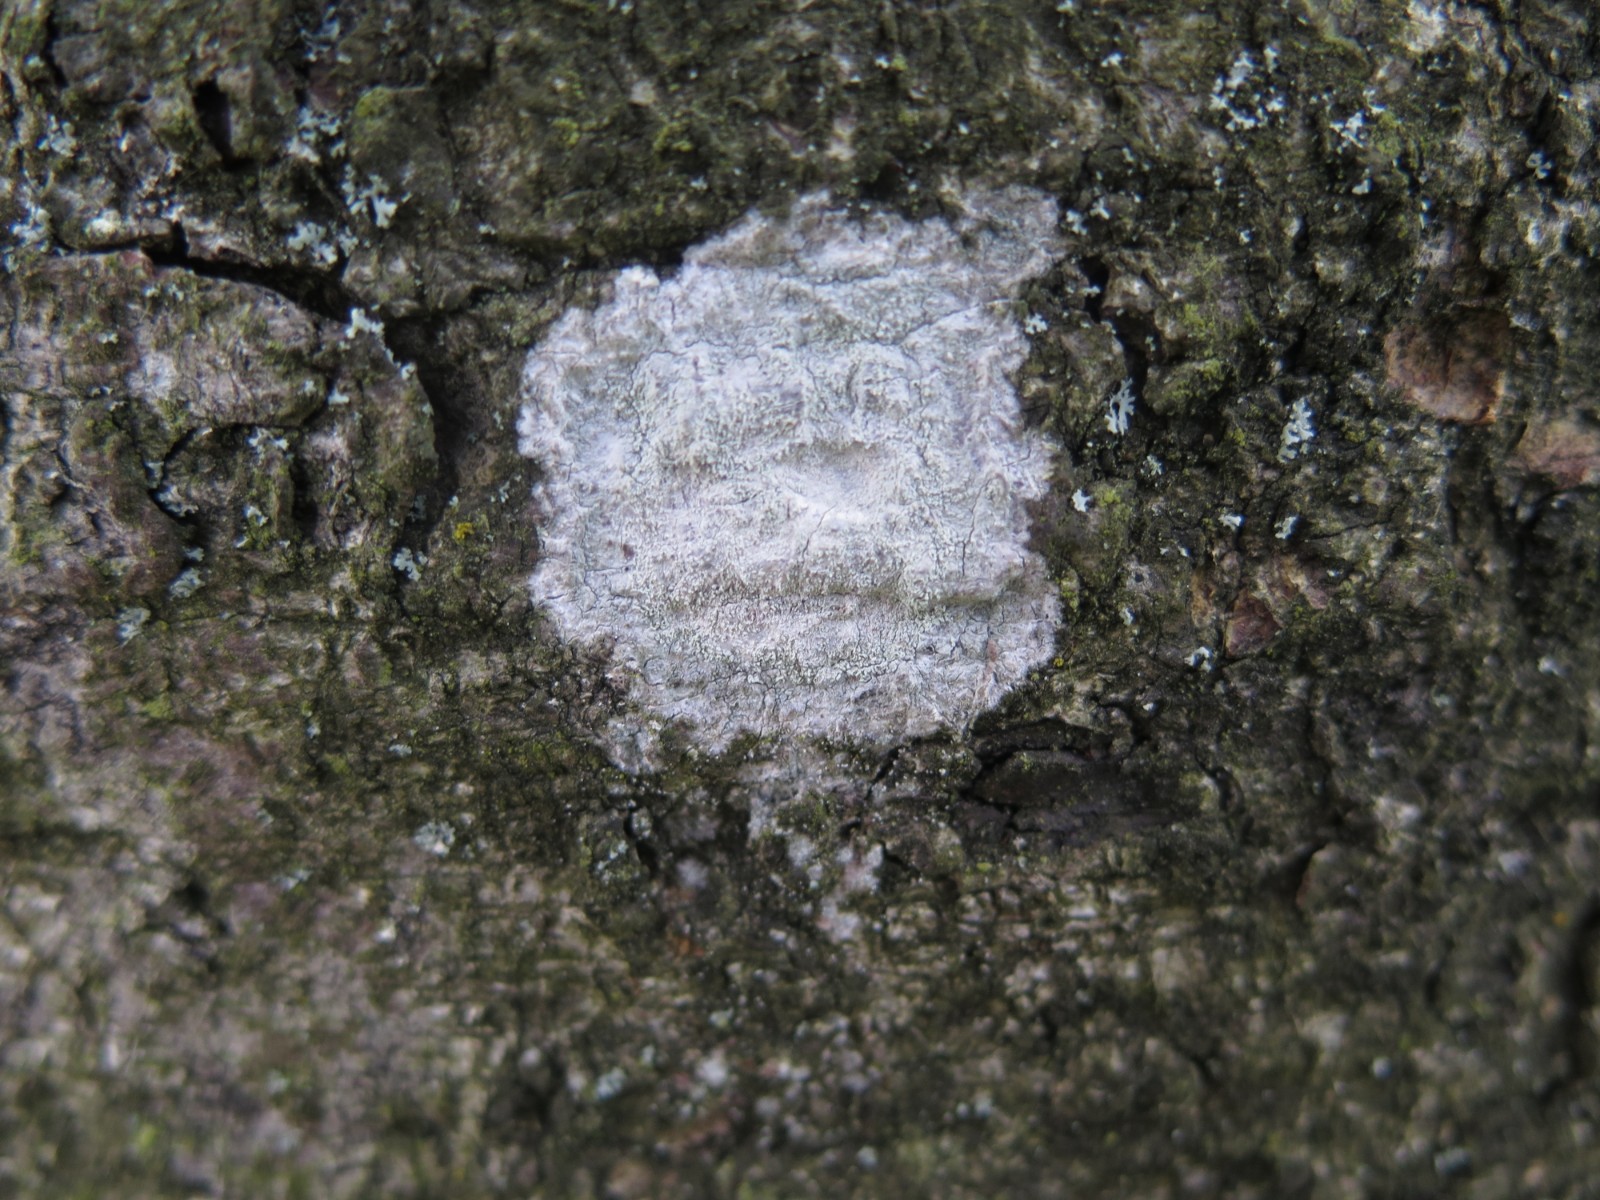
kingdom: Fungi
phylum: Ascomycota
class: Lecanoromycetes
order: Ostropales
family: Phlyctidaceae
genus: Phlyctis
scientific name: Phlyctis argena
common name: almindelig sølvlav
